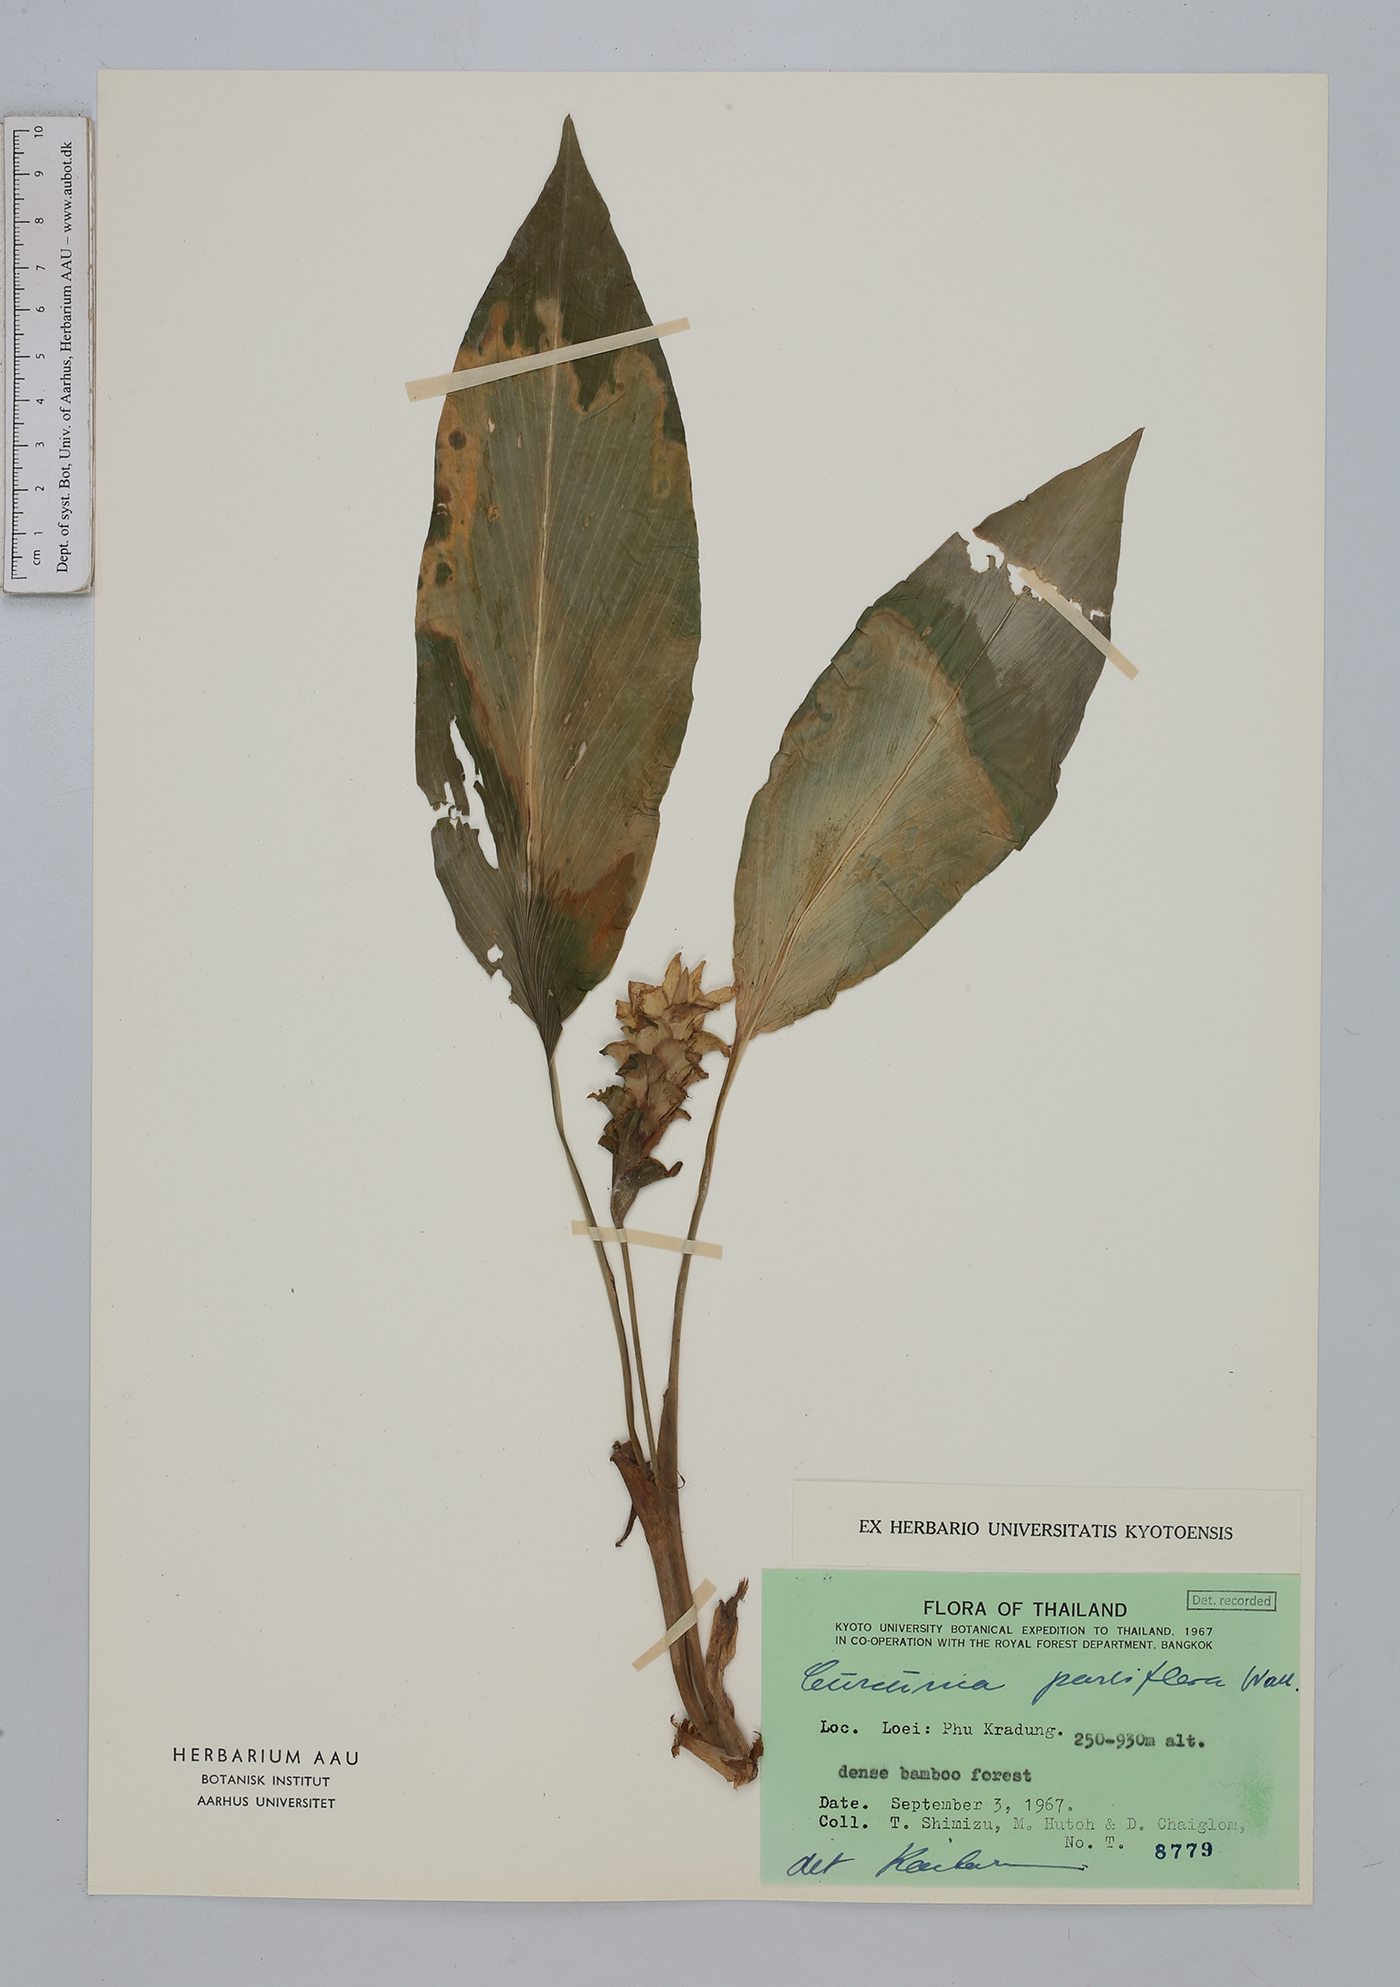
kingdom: Plantae
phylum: Tracheophyta
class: Liliopsida
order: Zingiberales
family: Zingiberaceae
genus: Curcuma
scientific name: Curcuma parviflora
